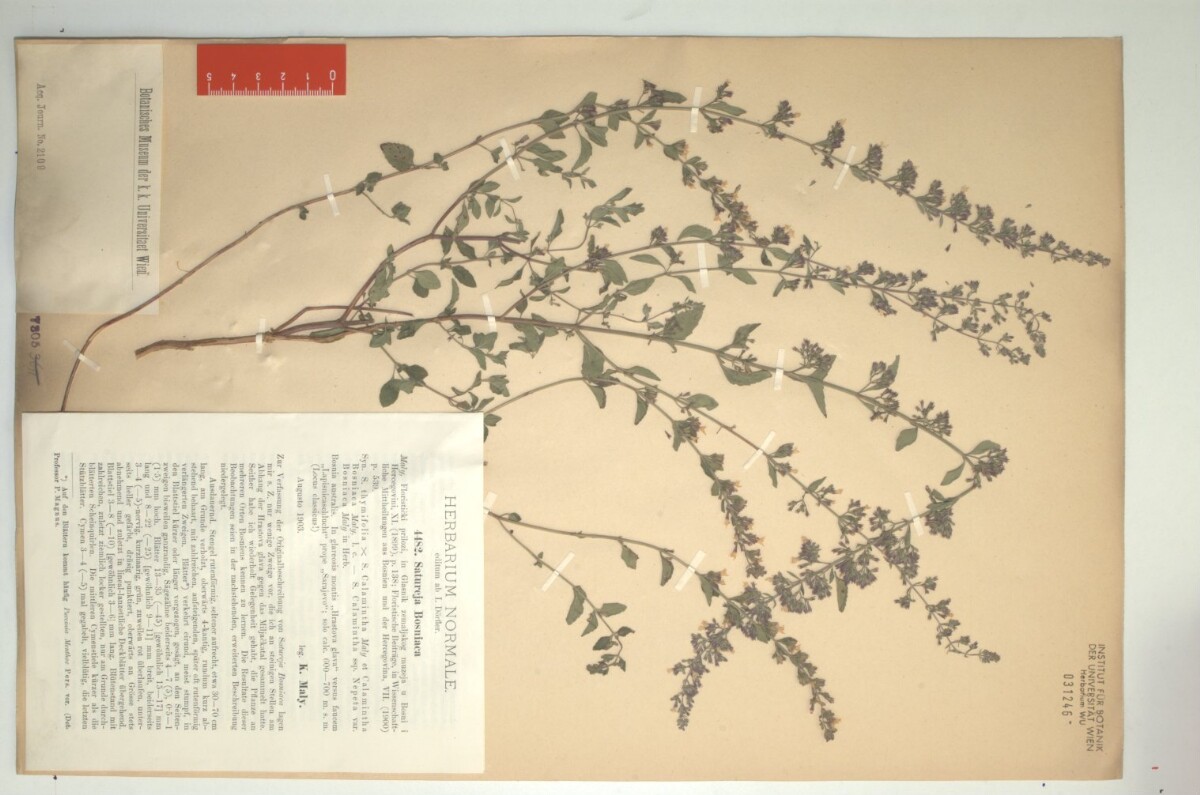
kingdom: Plantae
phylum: Tracheophyta
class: Magnoliopsida
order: Lamiales
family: Lamiaceae
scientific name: Lamiaceae
